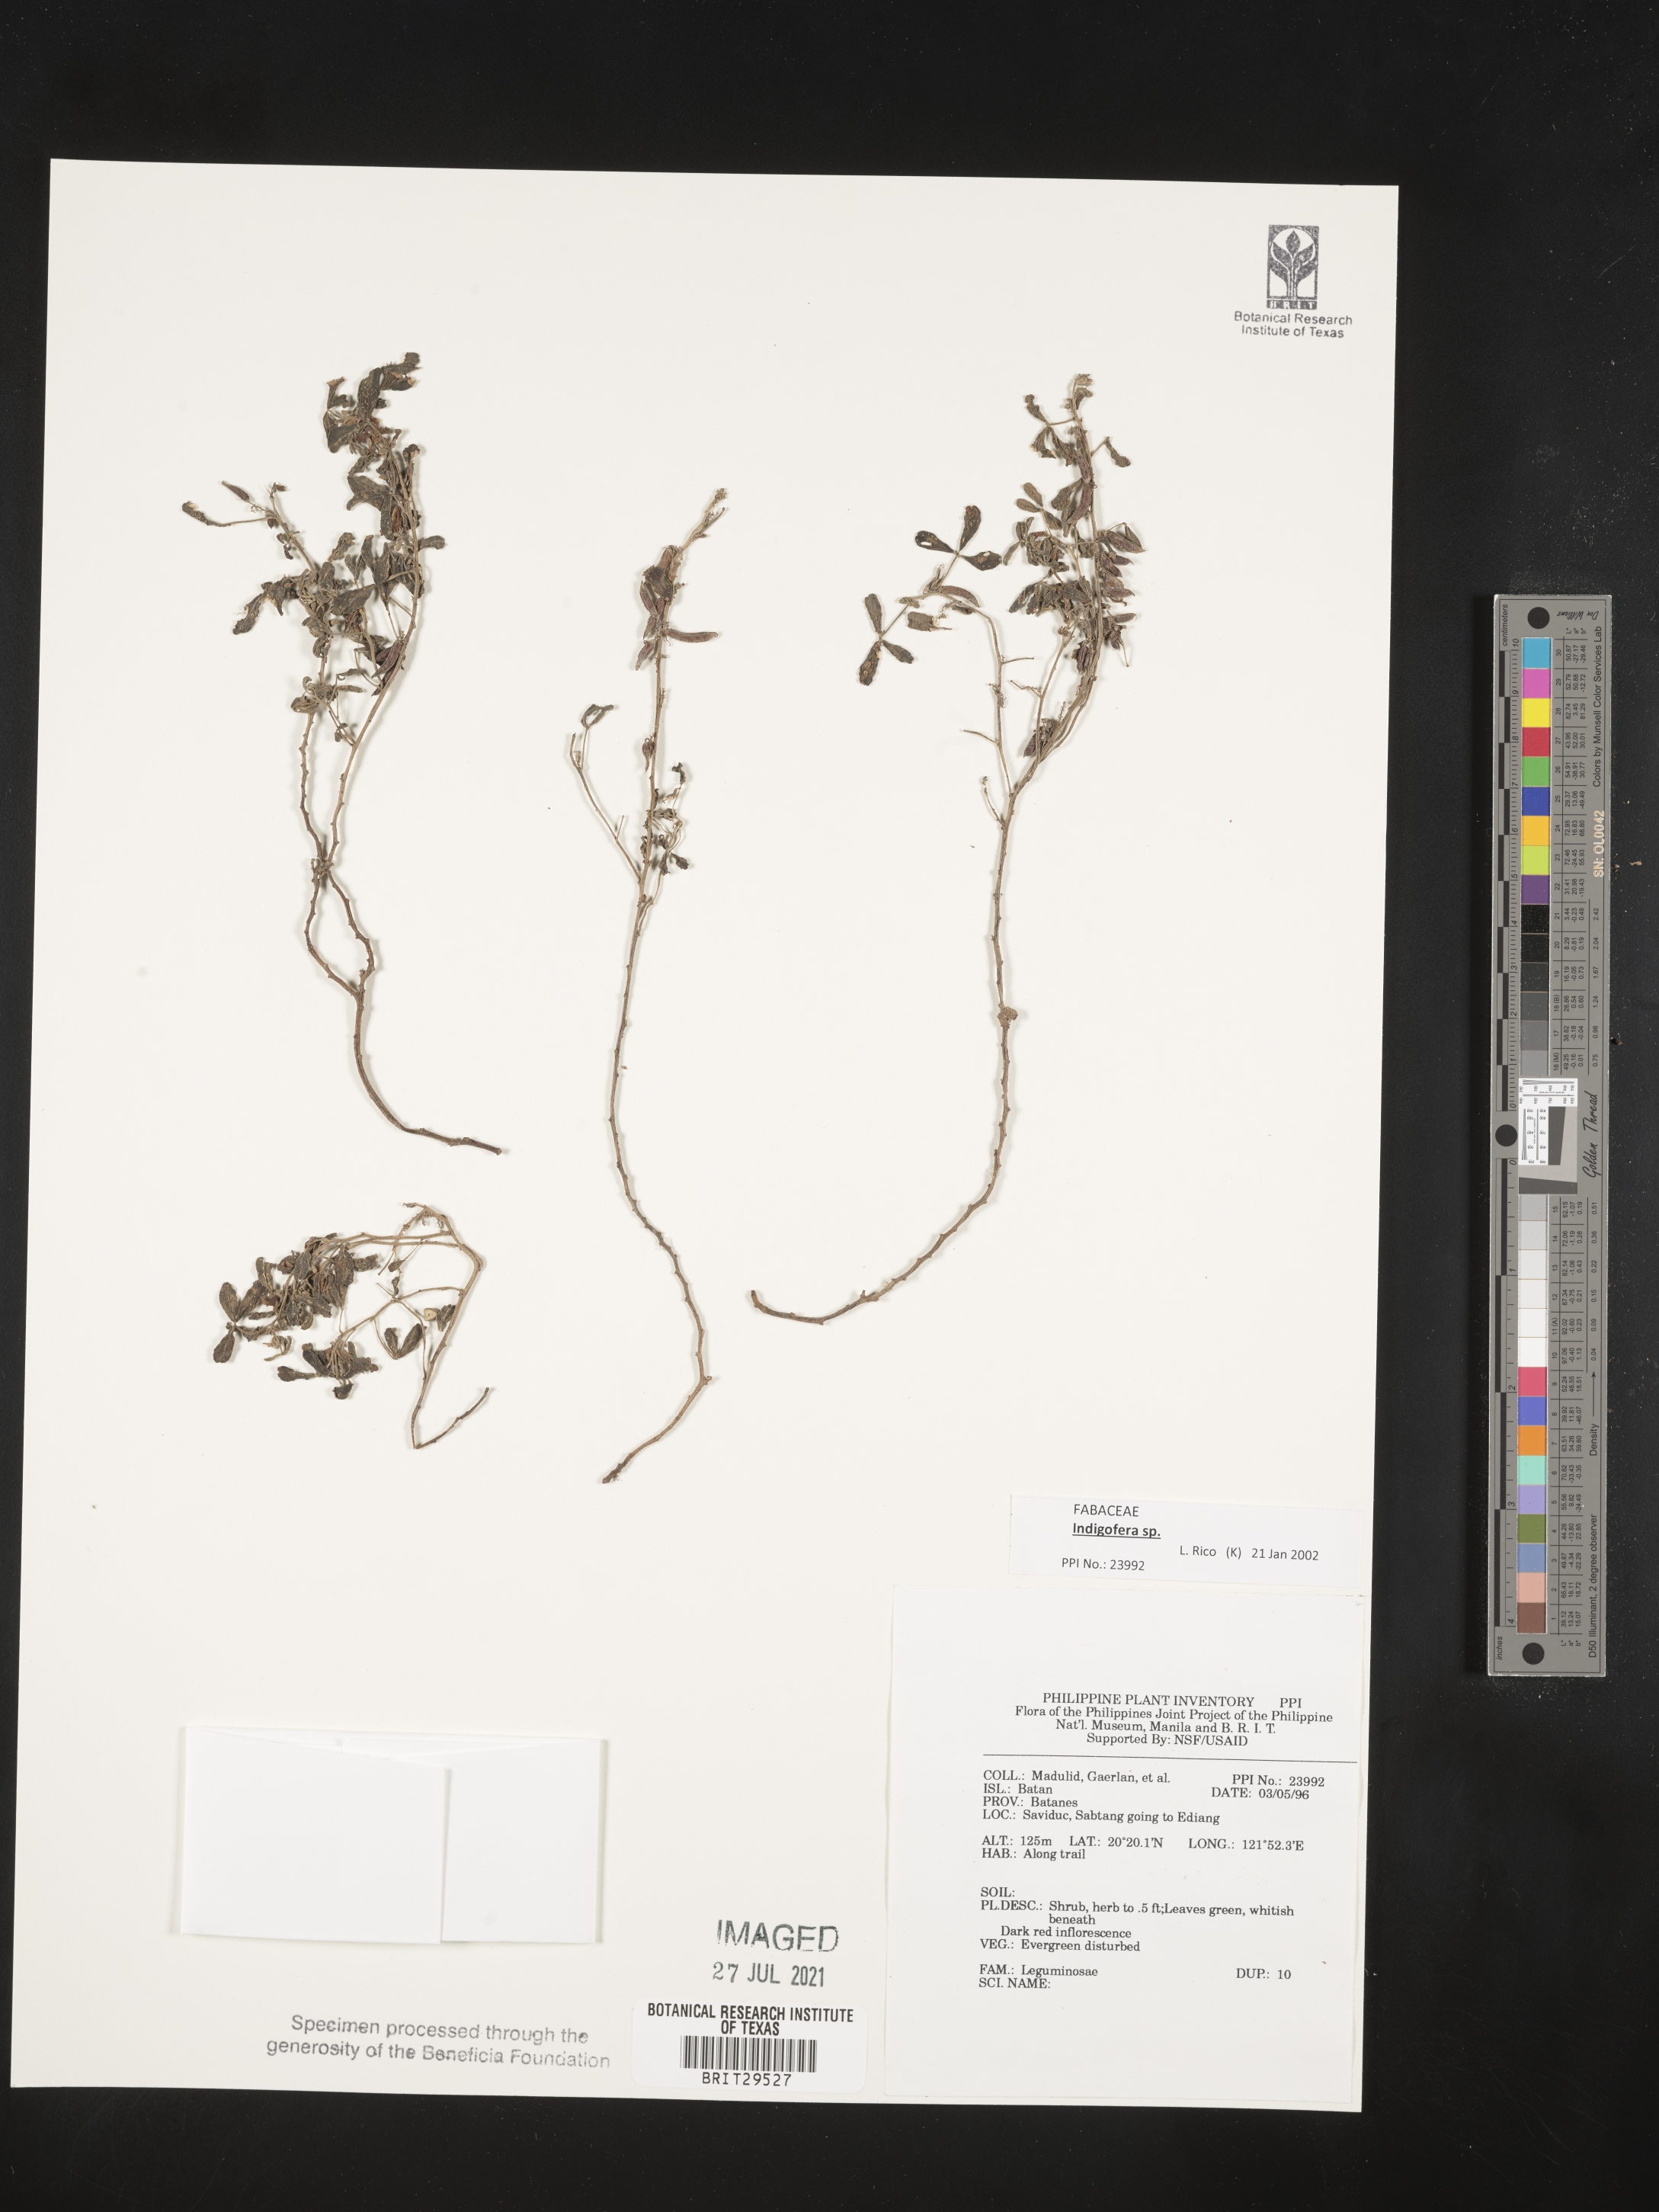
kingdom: Plantae
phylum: Tracheophyta
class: Magnoliopsida
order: Fabales
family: Fabaceae
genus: Indigofera
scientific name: Indigofera
